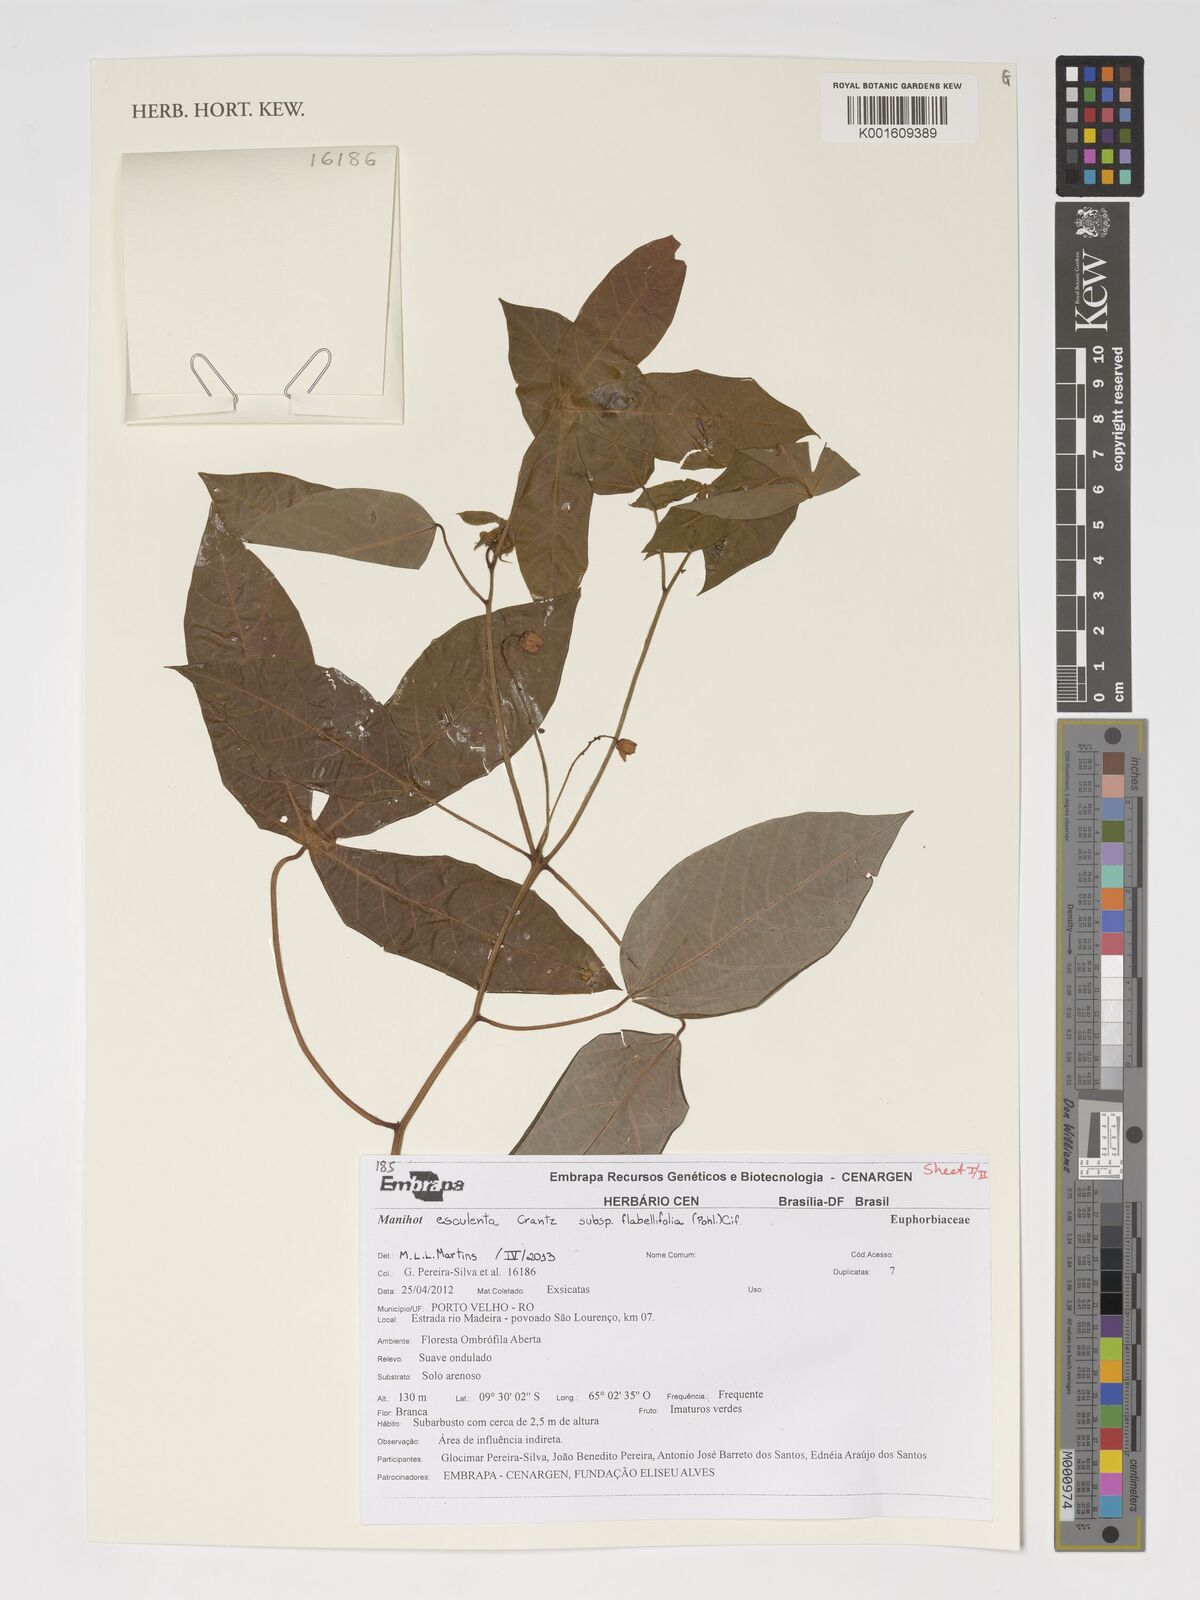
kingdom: Plantae
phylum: Tracheophyta
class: Magnoliopsida
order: Malpighiales
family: Euphorbiaceae
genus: Manihot
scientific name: Manihot esculenta
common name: Cassava
